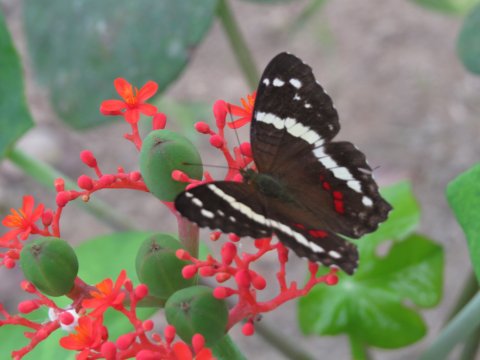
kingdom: Animalia
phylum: Arthropoda
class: Insecta
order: Lepidoptera
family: Nymphalidae
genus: Anartia
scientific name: Anartia fatima
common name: Banded Peacock
